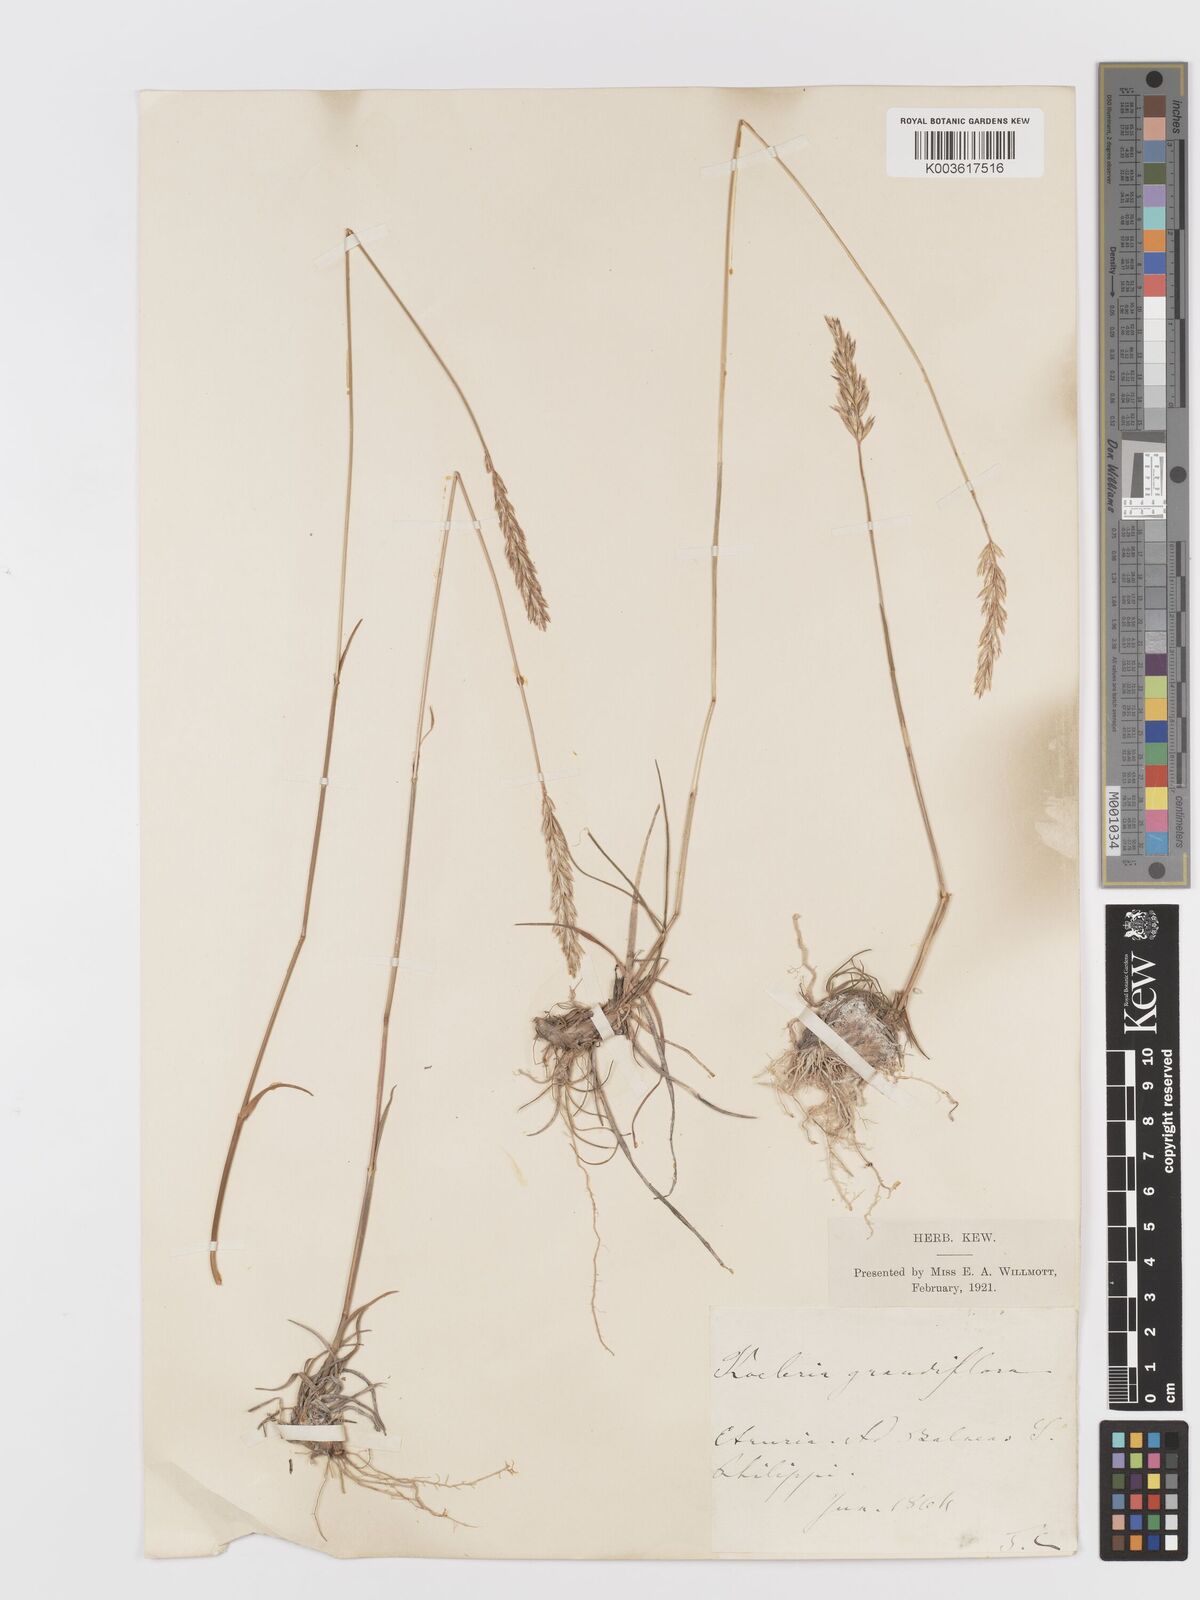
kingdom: Plantae
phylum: Tracheophyta
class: Liliopsida
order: Poales
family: Poaceae
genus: Koeleria
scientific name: Koeleria
